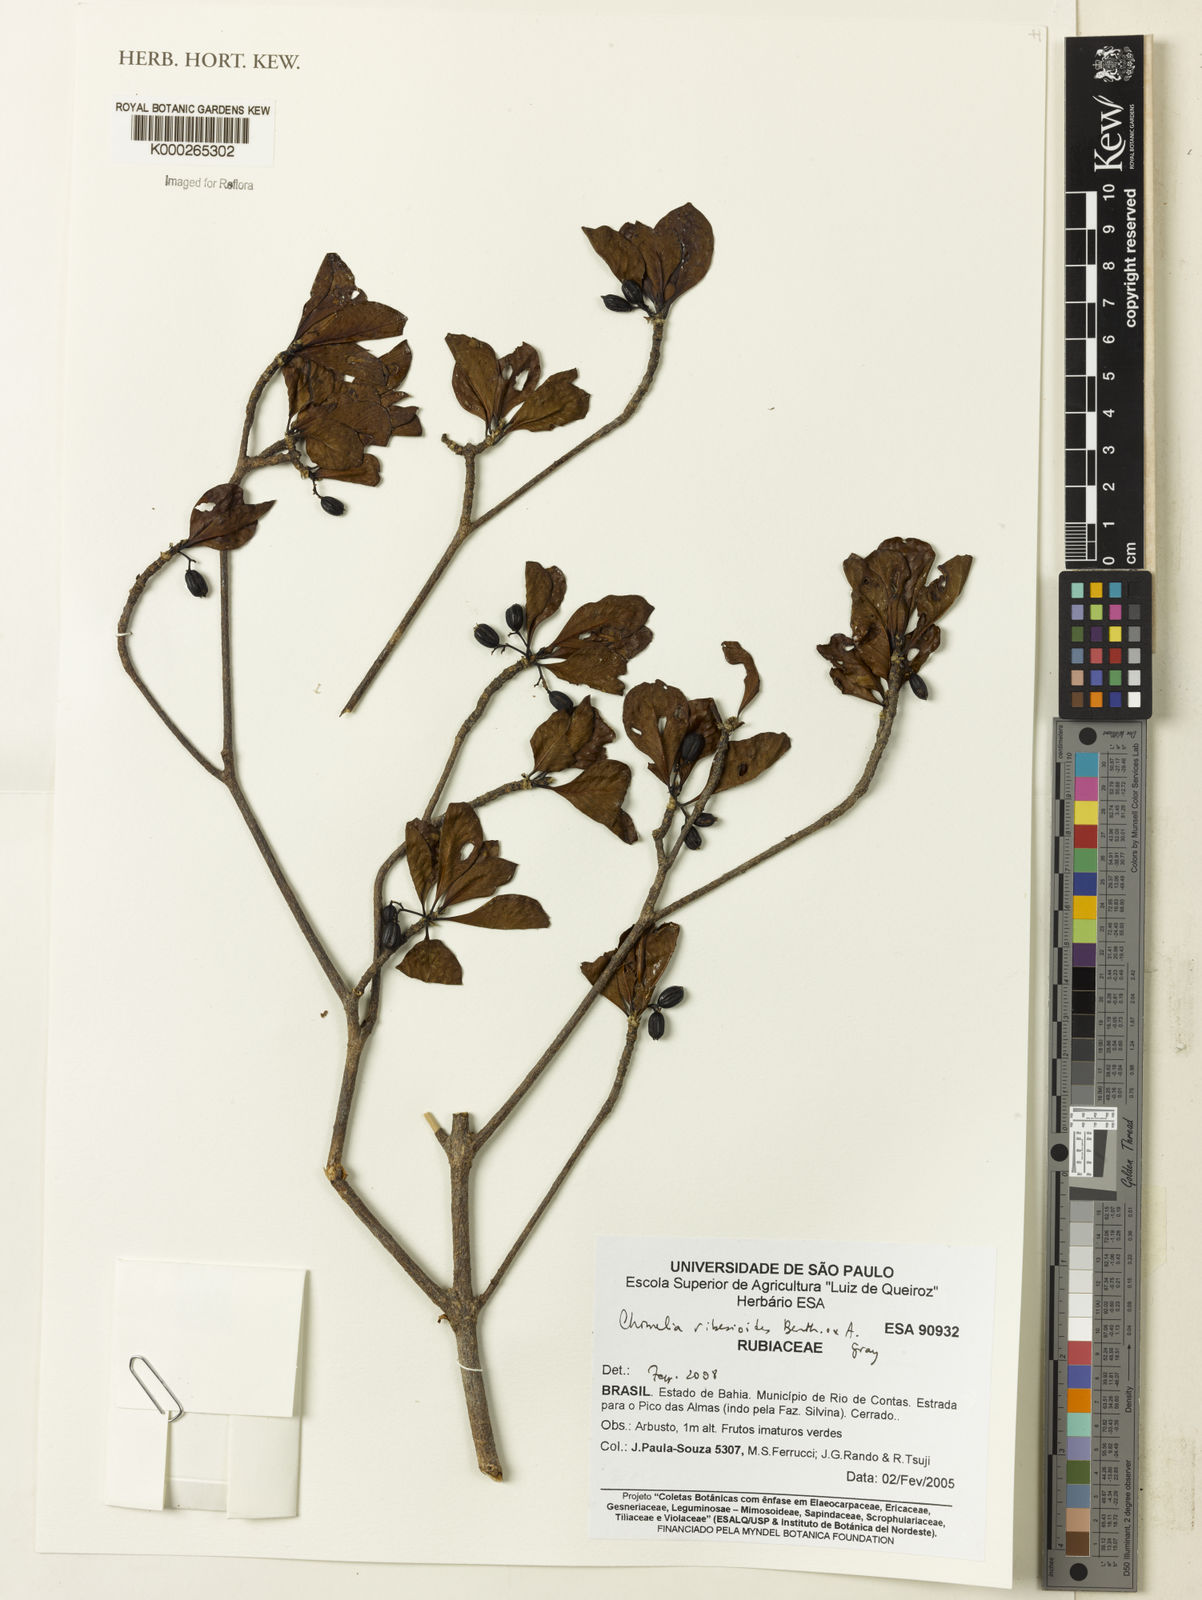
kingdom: Plantae
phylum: Tracheophyta
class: Magnoliopsida
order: Gentianales
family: Rubiaceae
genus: Chomelia
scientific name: Chomelia ribesioides
